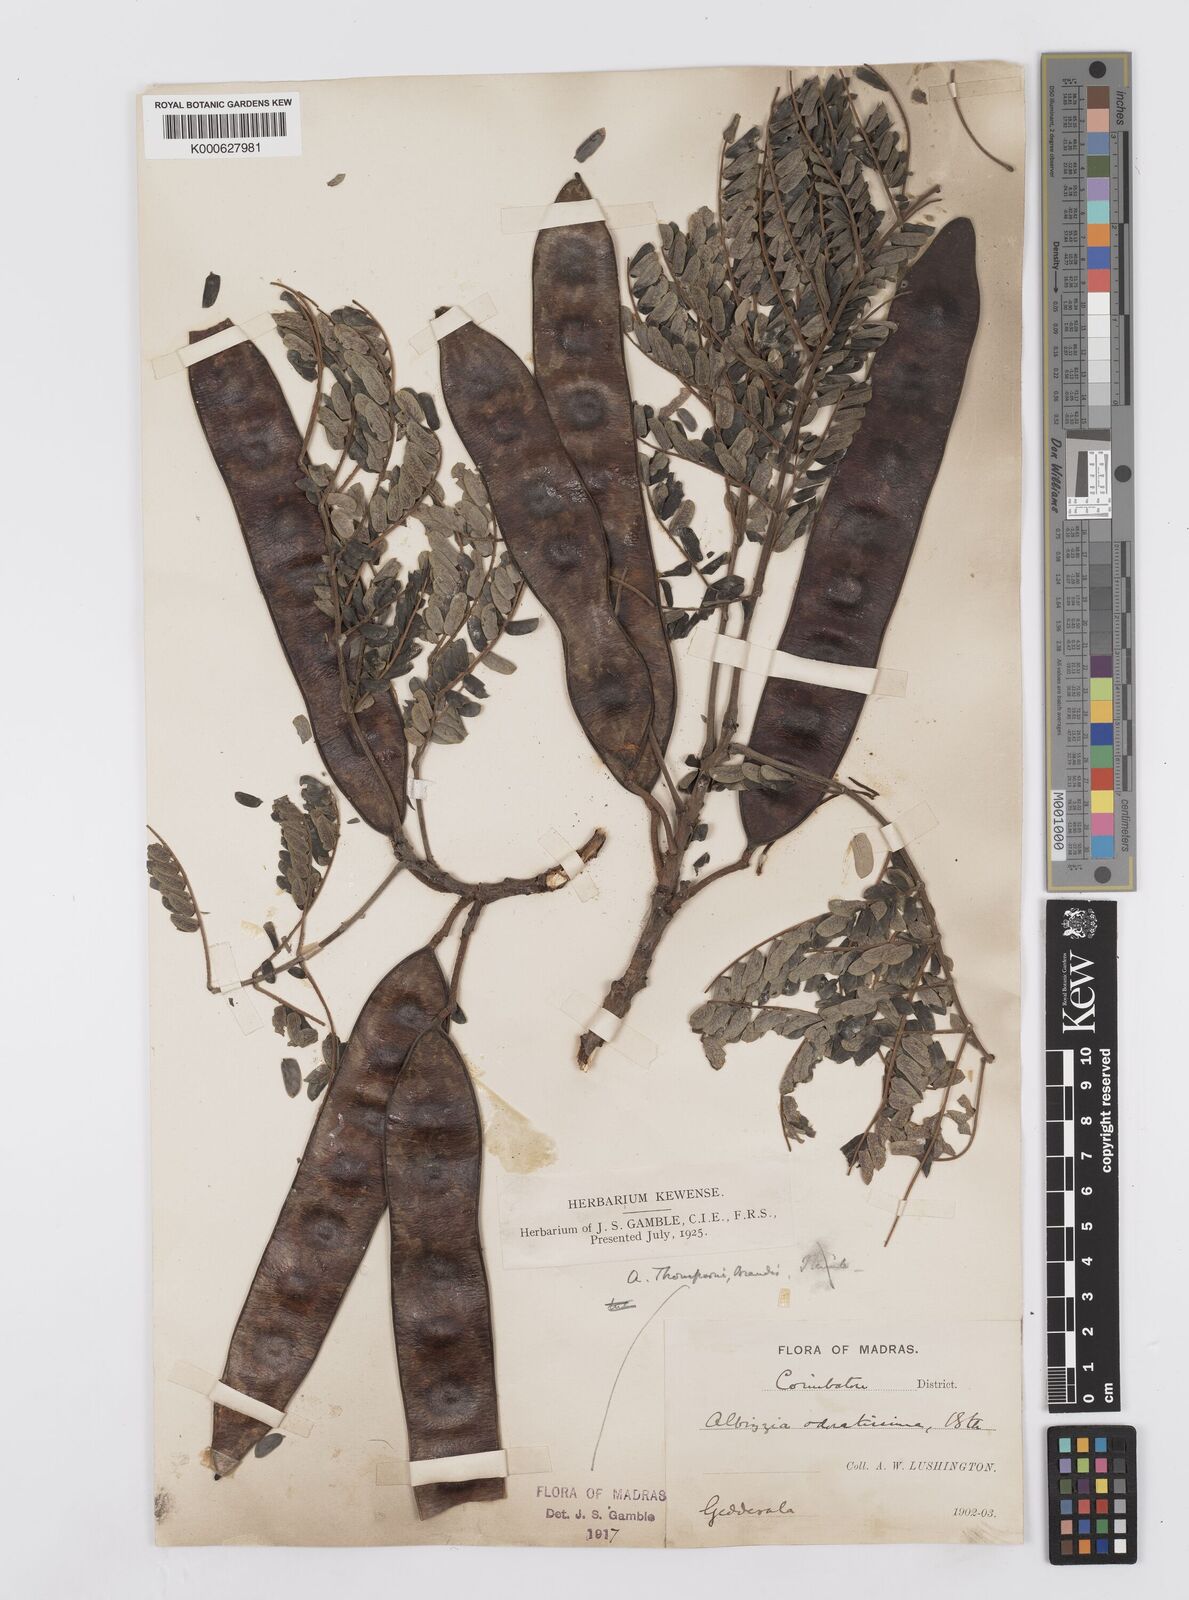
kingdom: Plantae
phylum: Tracheophyta
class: Magnoliopsida
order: Fabales
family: Fabaceae
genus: Albizia
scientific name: Albizia thompsonii
